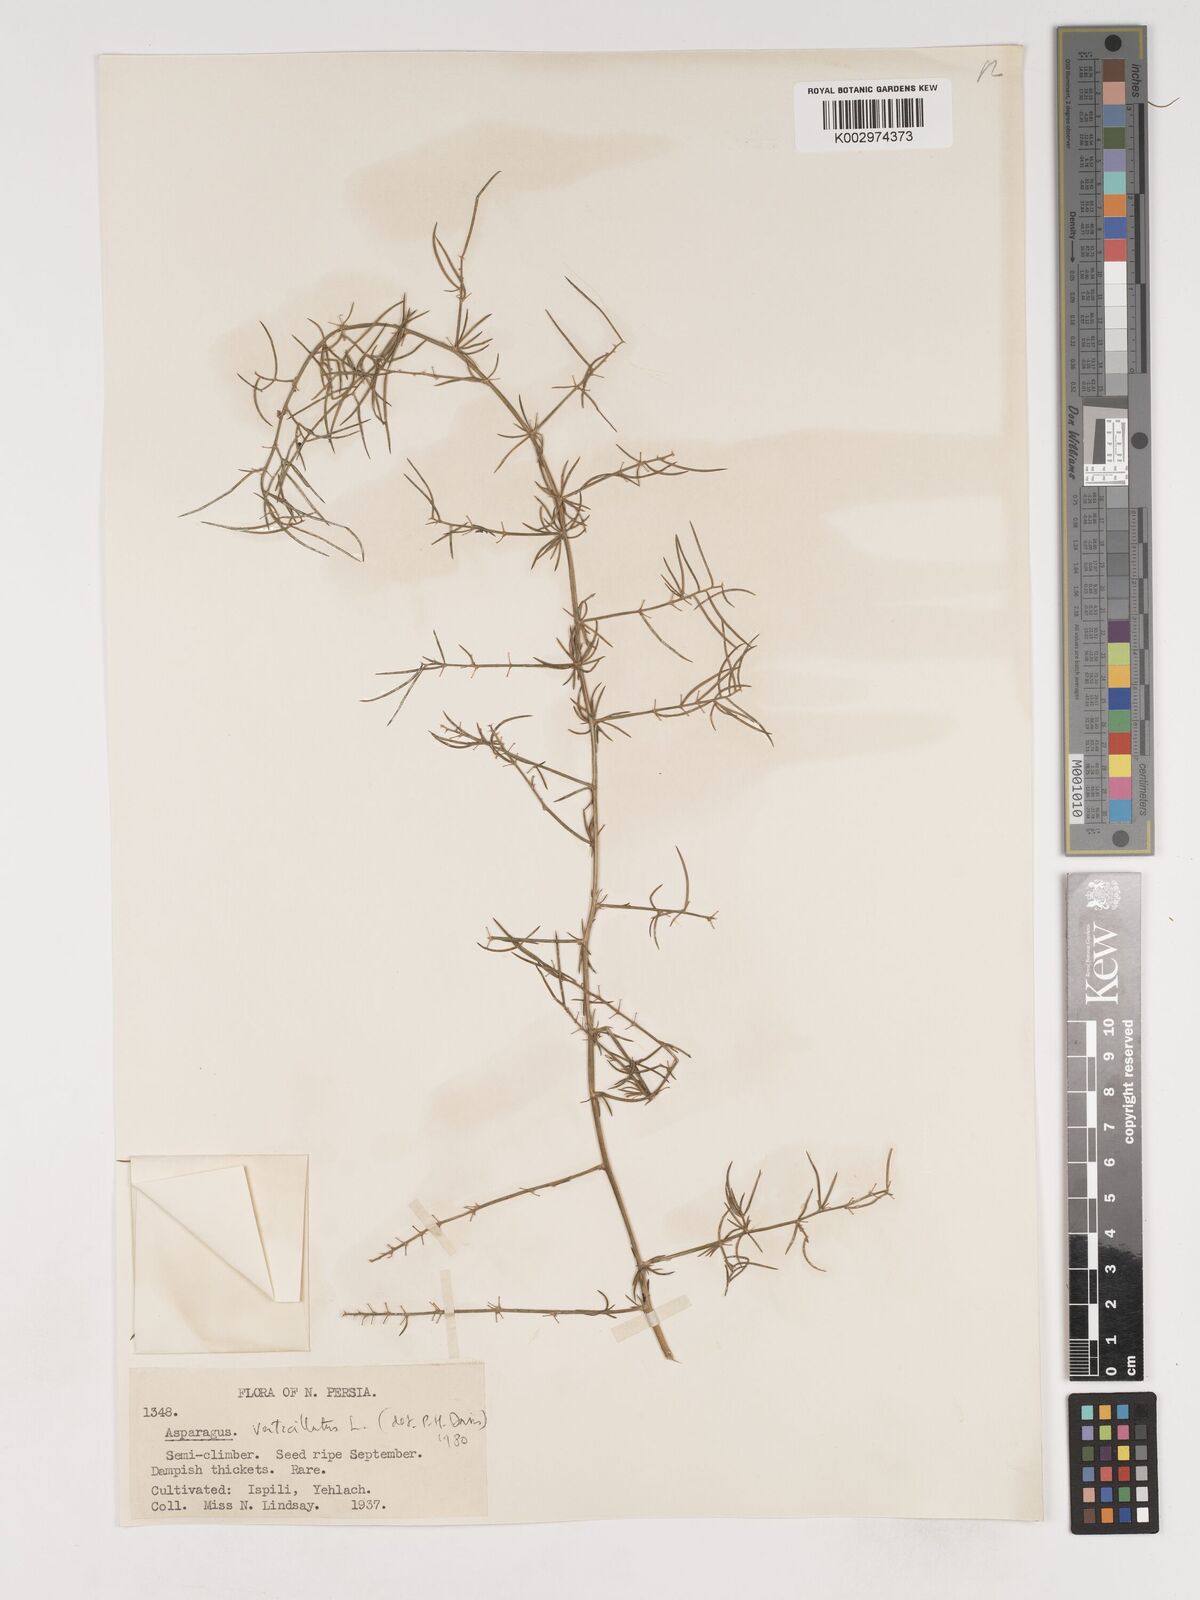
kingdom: Plantae
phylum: Tracheophyta
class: Liliopsida
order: Asparagales
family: Asparagaceae
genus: Asparagus
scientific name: Asparagus verticillatus
